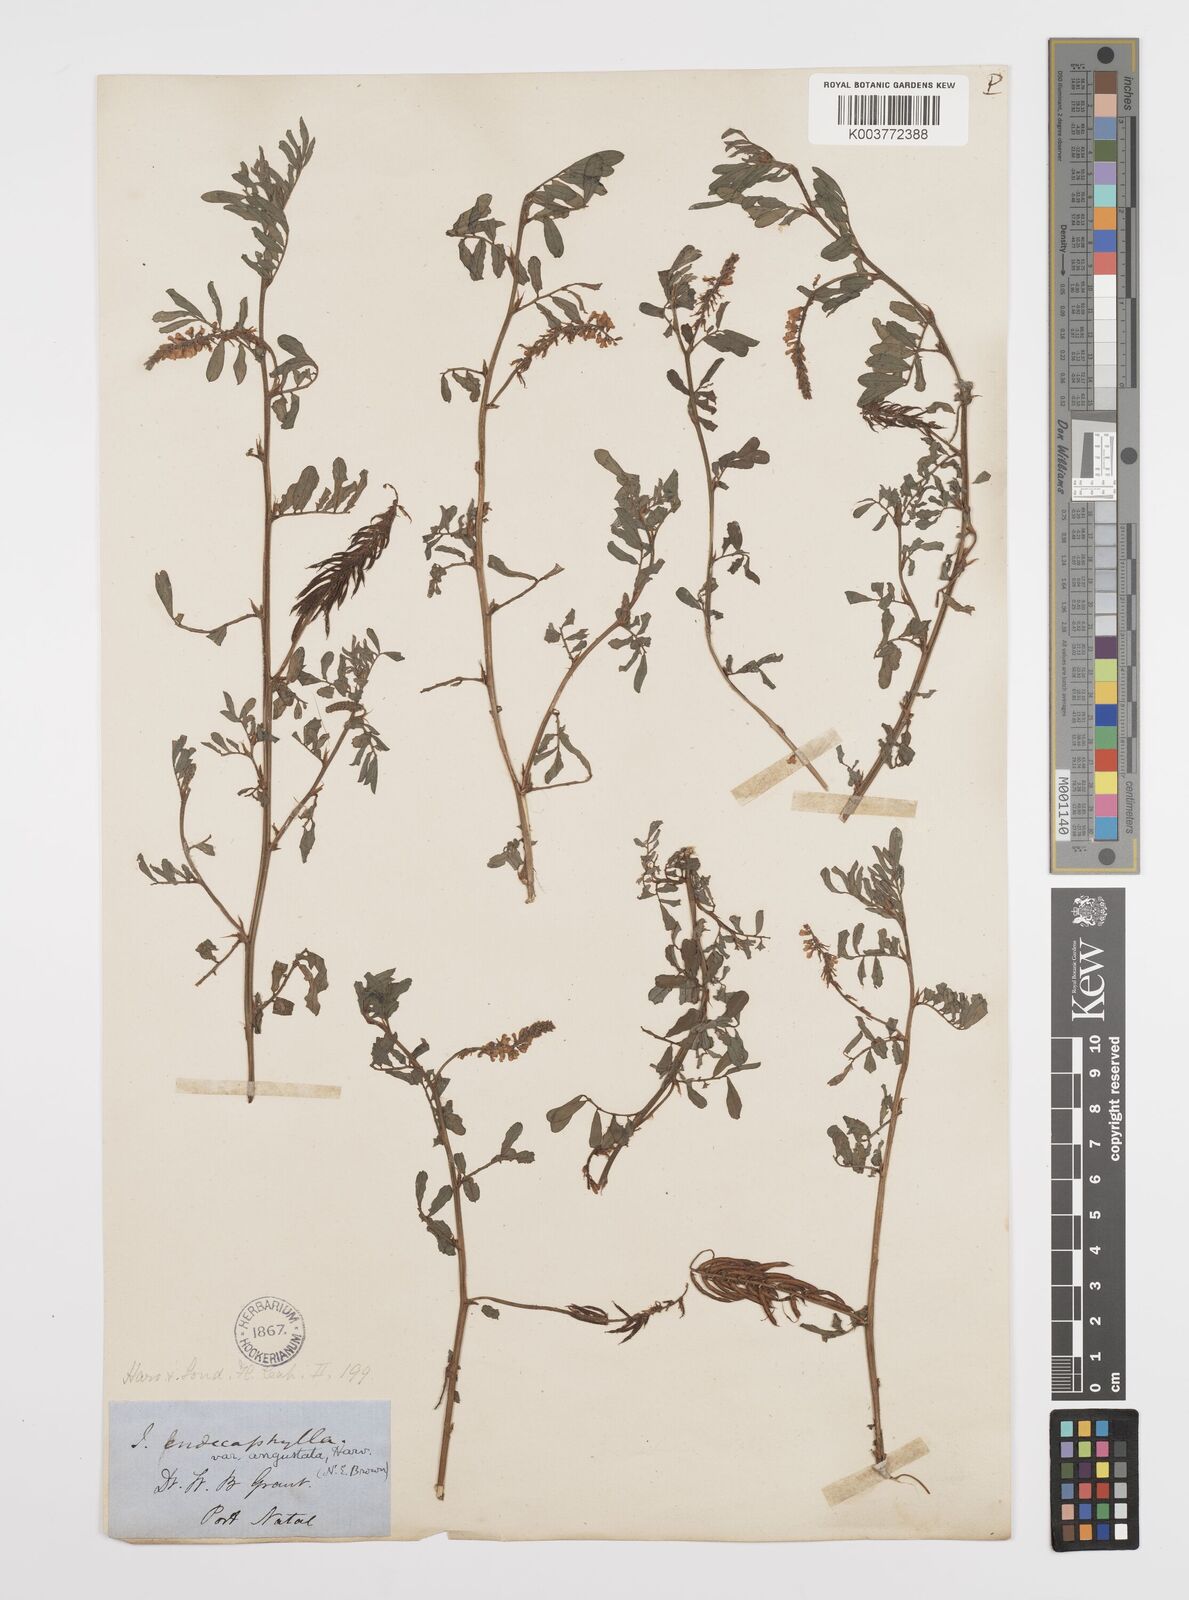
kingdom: Plantae
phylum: Tracheophyta
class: Magnoliopsida
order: Fabales
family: Fabaceae
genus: Indigofera
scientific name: Indigofera hendecaphylla
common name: Trailing indigo
